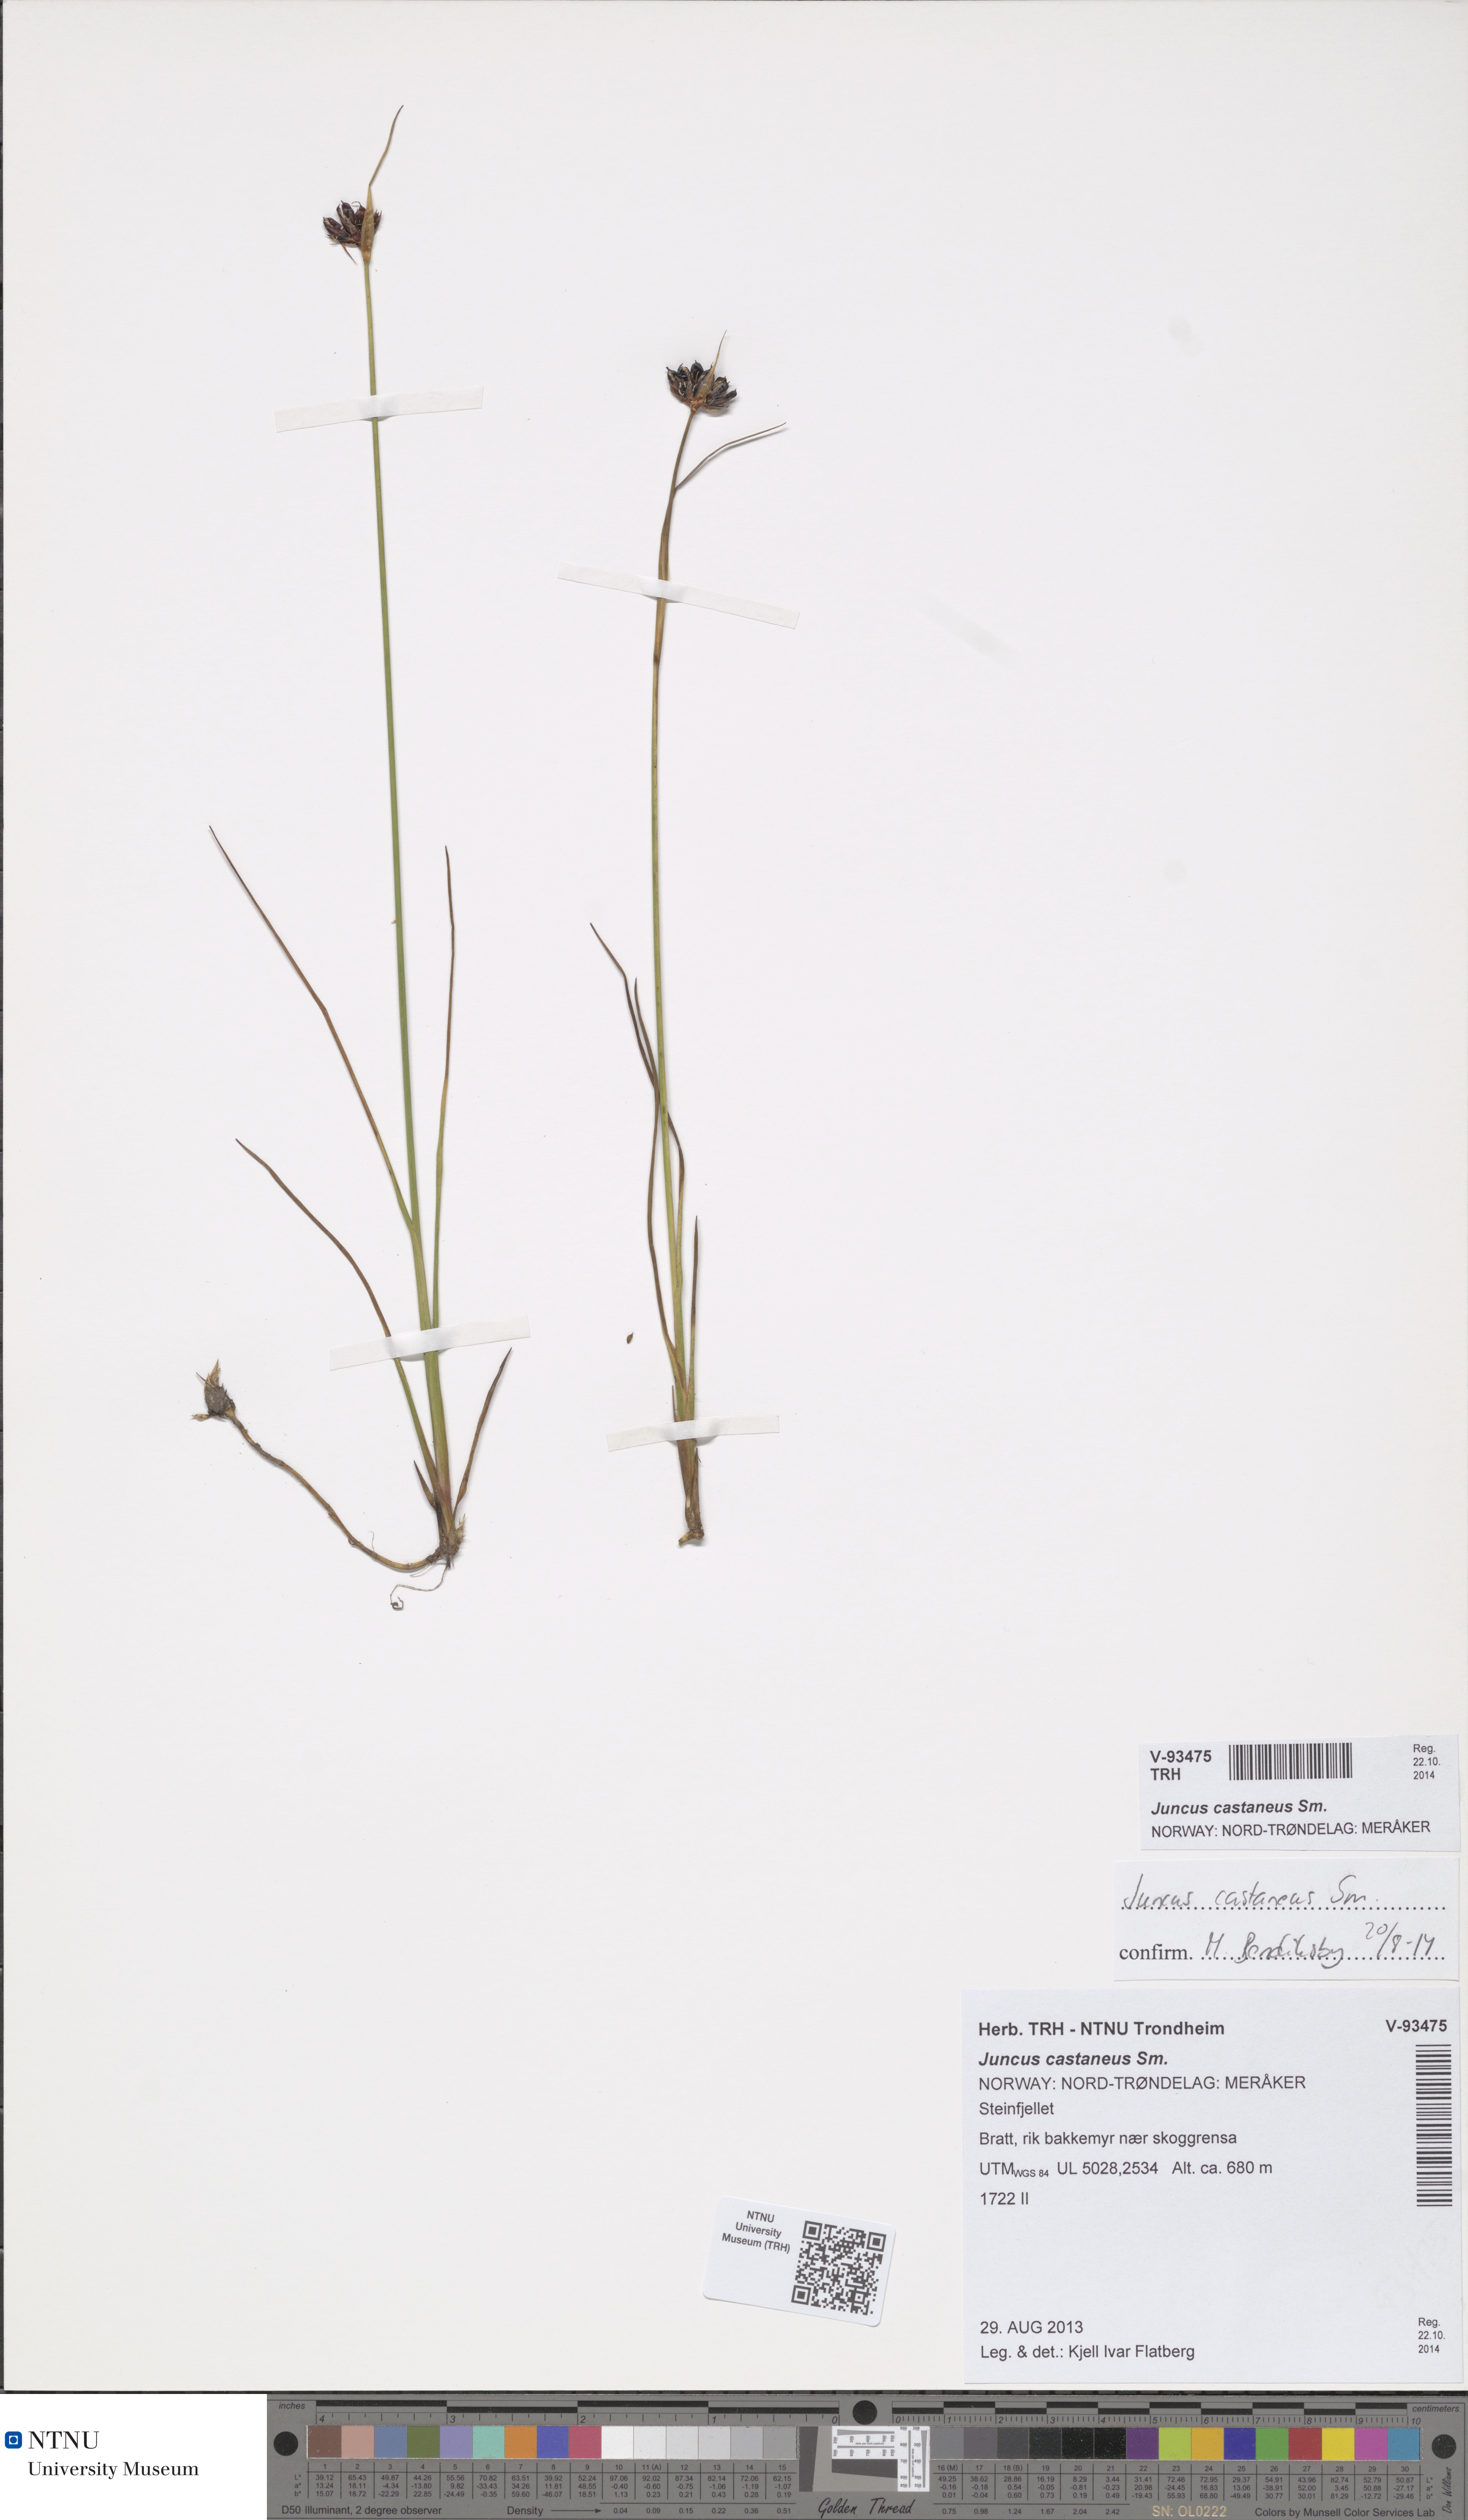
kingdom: Plantae
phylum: Tracheophyta
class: Liliopsida
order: Poales
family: Juncaceae
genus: Juncus
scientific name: Juncus castaneus
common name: Chestnut rush
